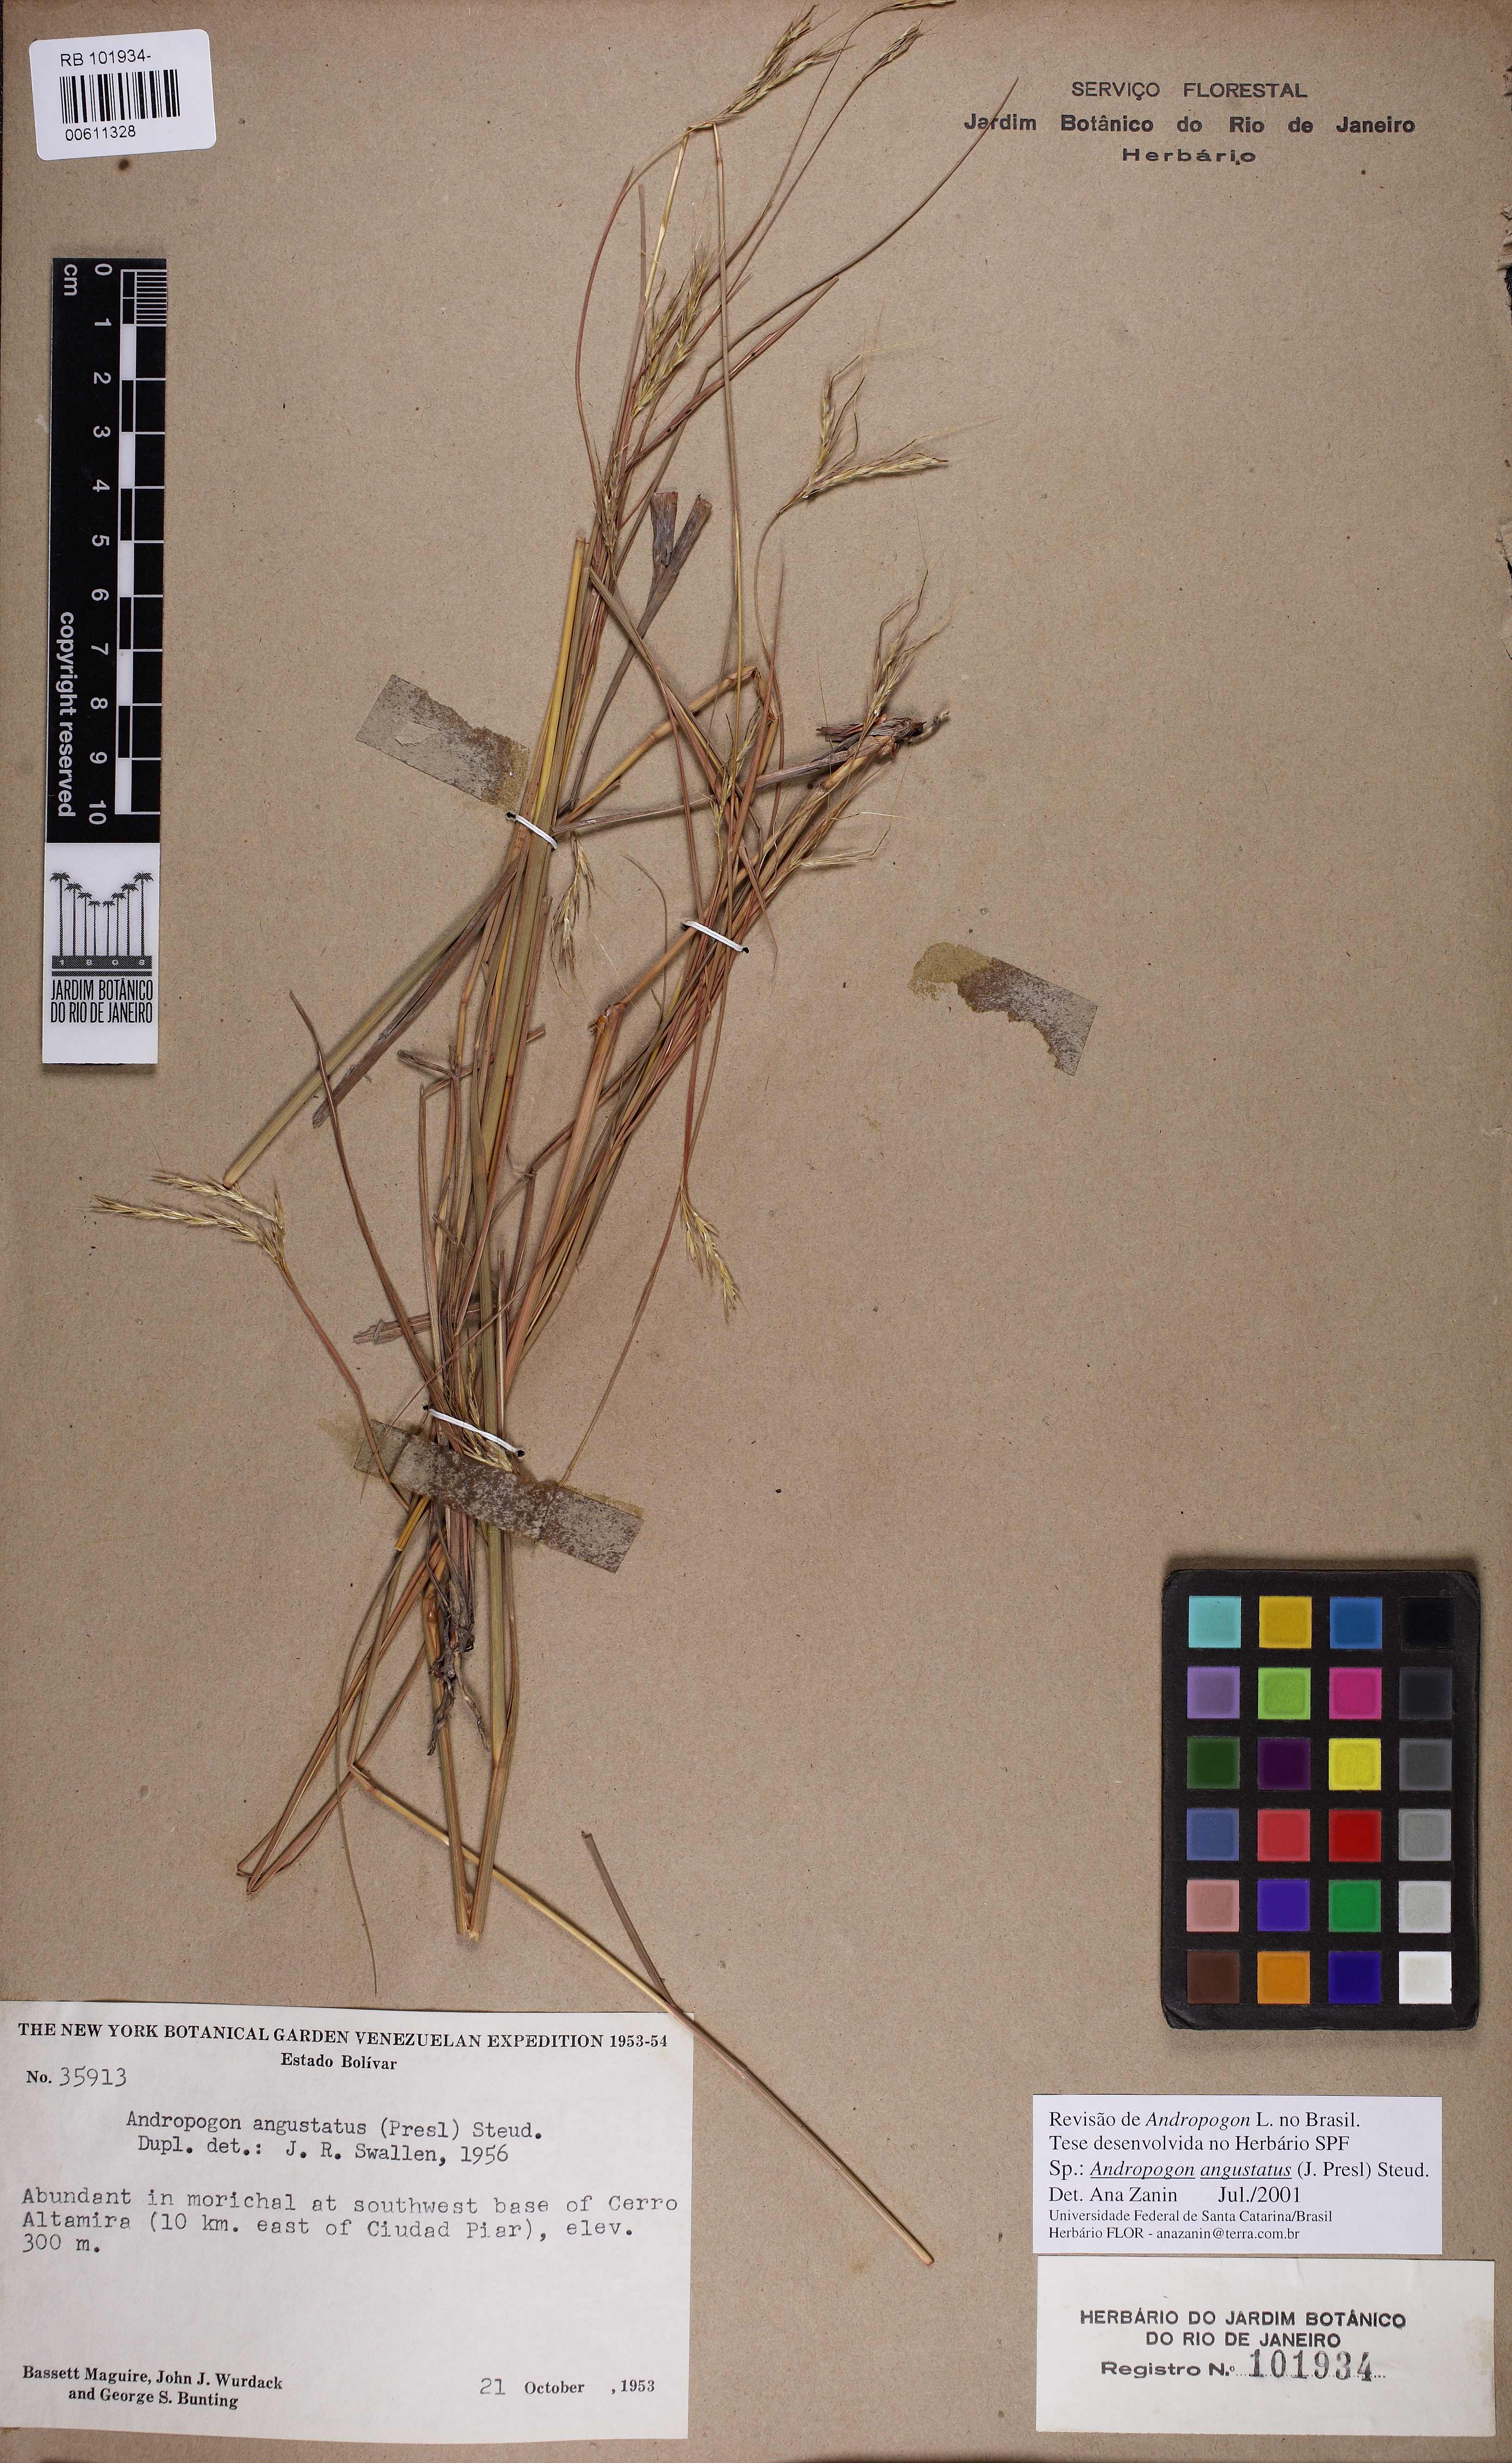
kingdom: Plantae
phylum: Tracheophyta
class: Liliopsida
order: Poales
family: Poaceae
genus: Andropogon
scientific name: Andropogon angustatus
